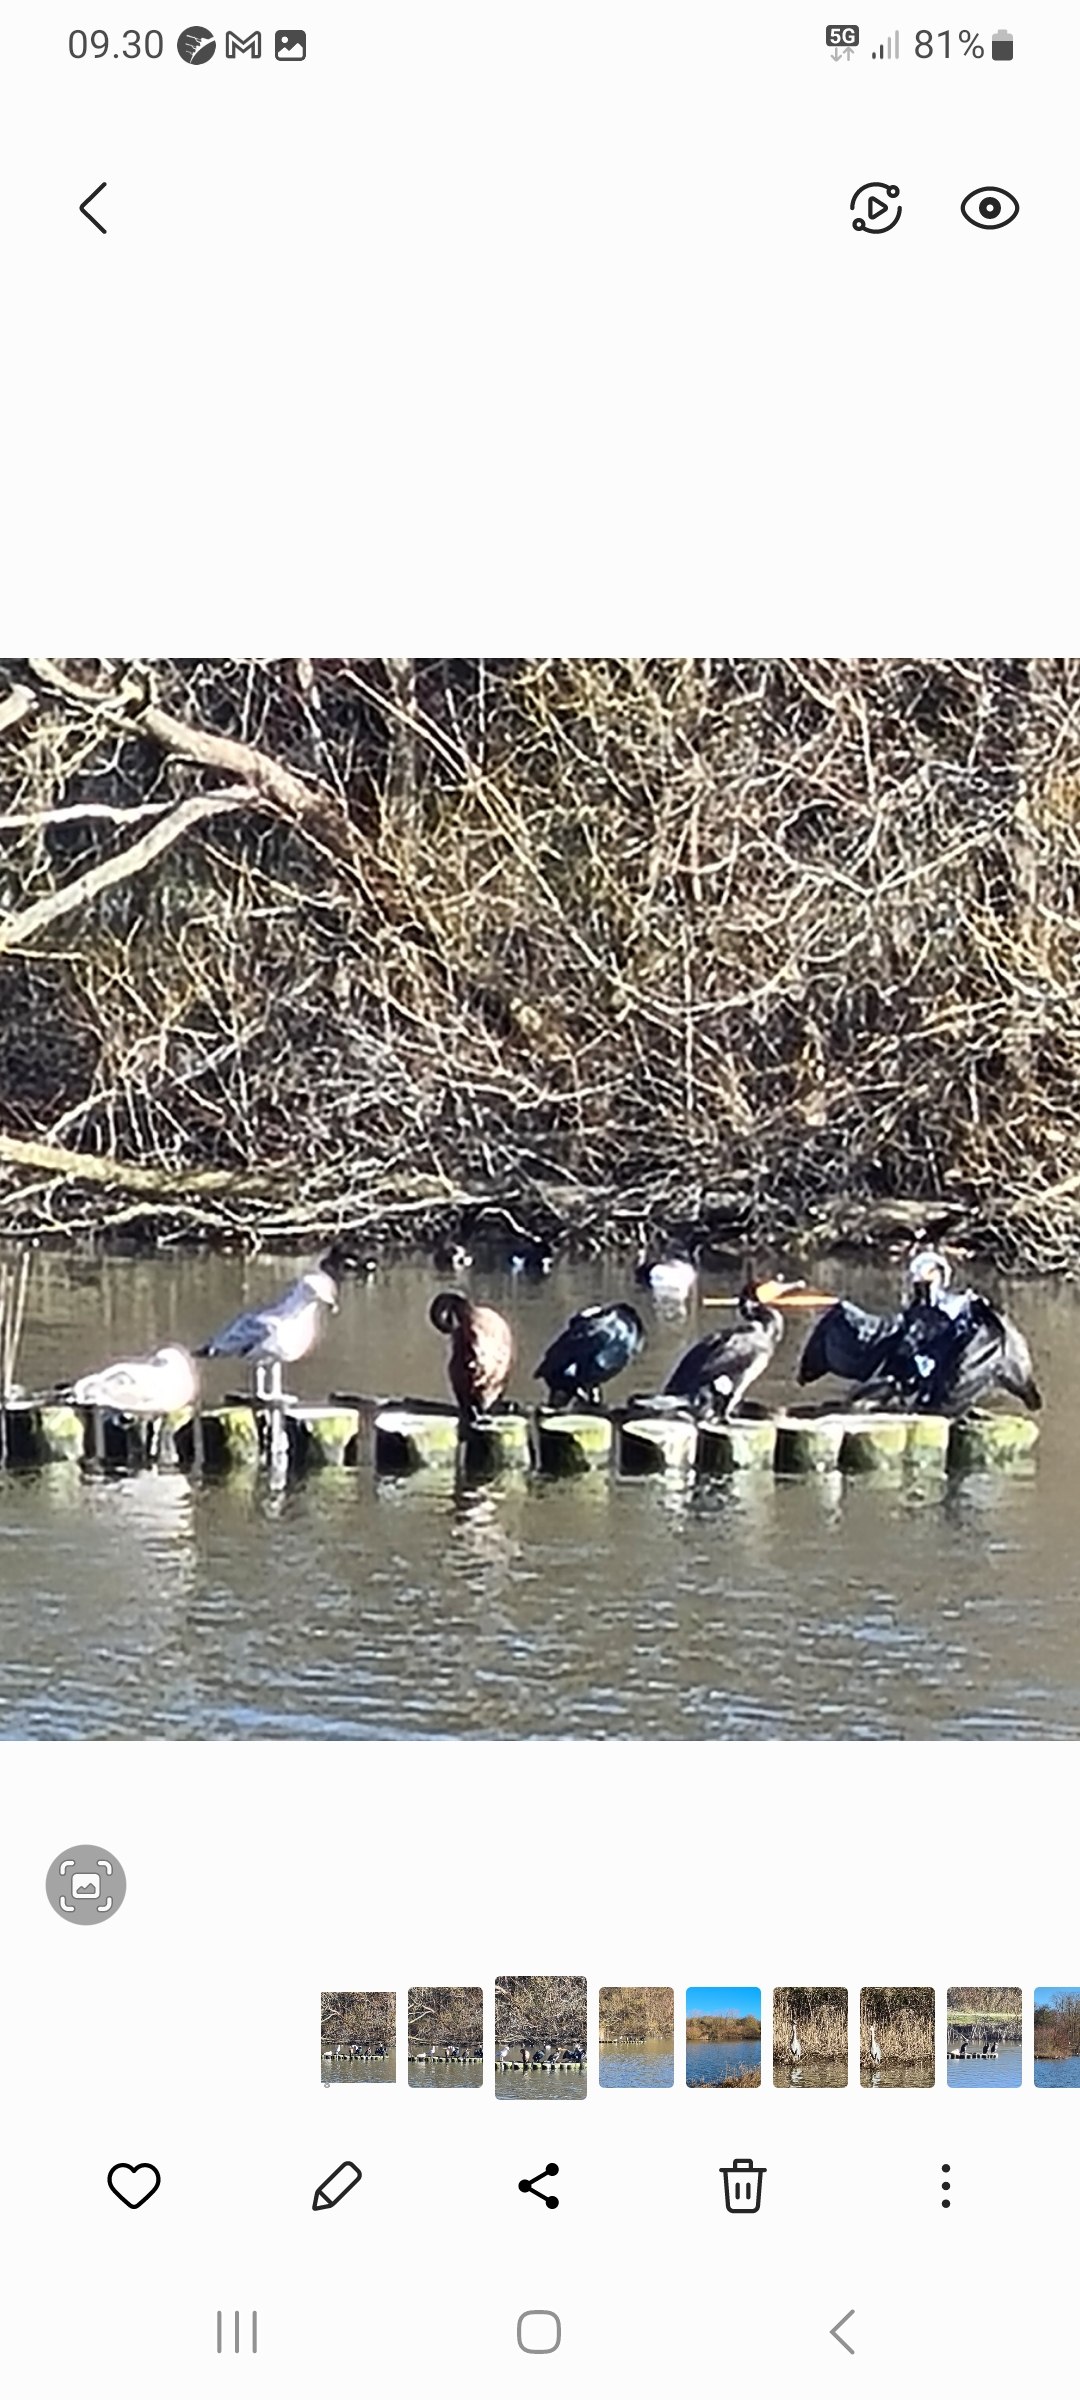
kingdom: Animalia
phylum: Chordata
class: Aves
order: Suliformes
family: Phalacrocoracidae
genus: Phalacrocorax
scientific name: Phalacrocorax carbo
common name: Skarv
